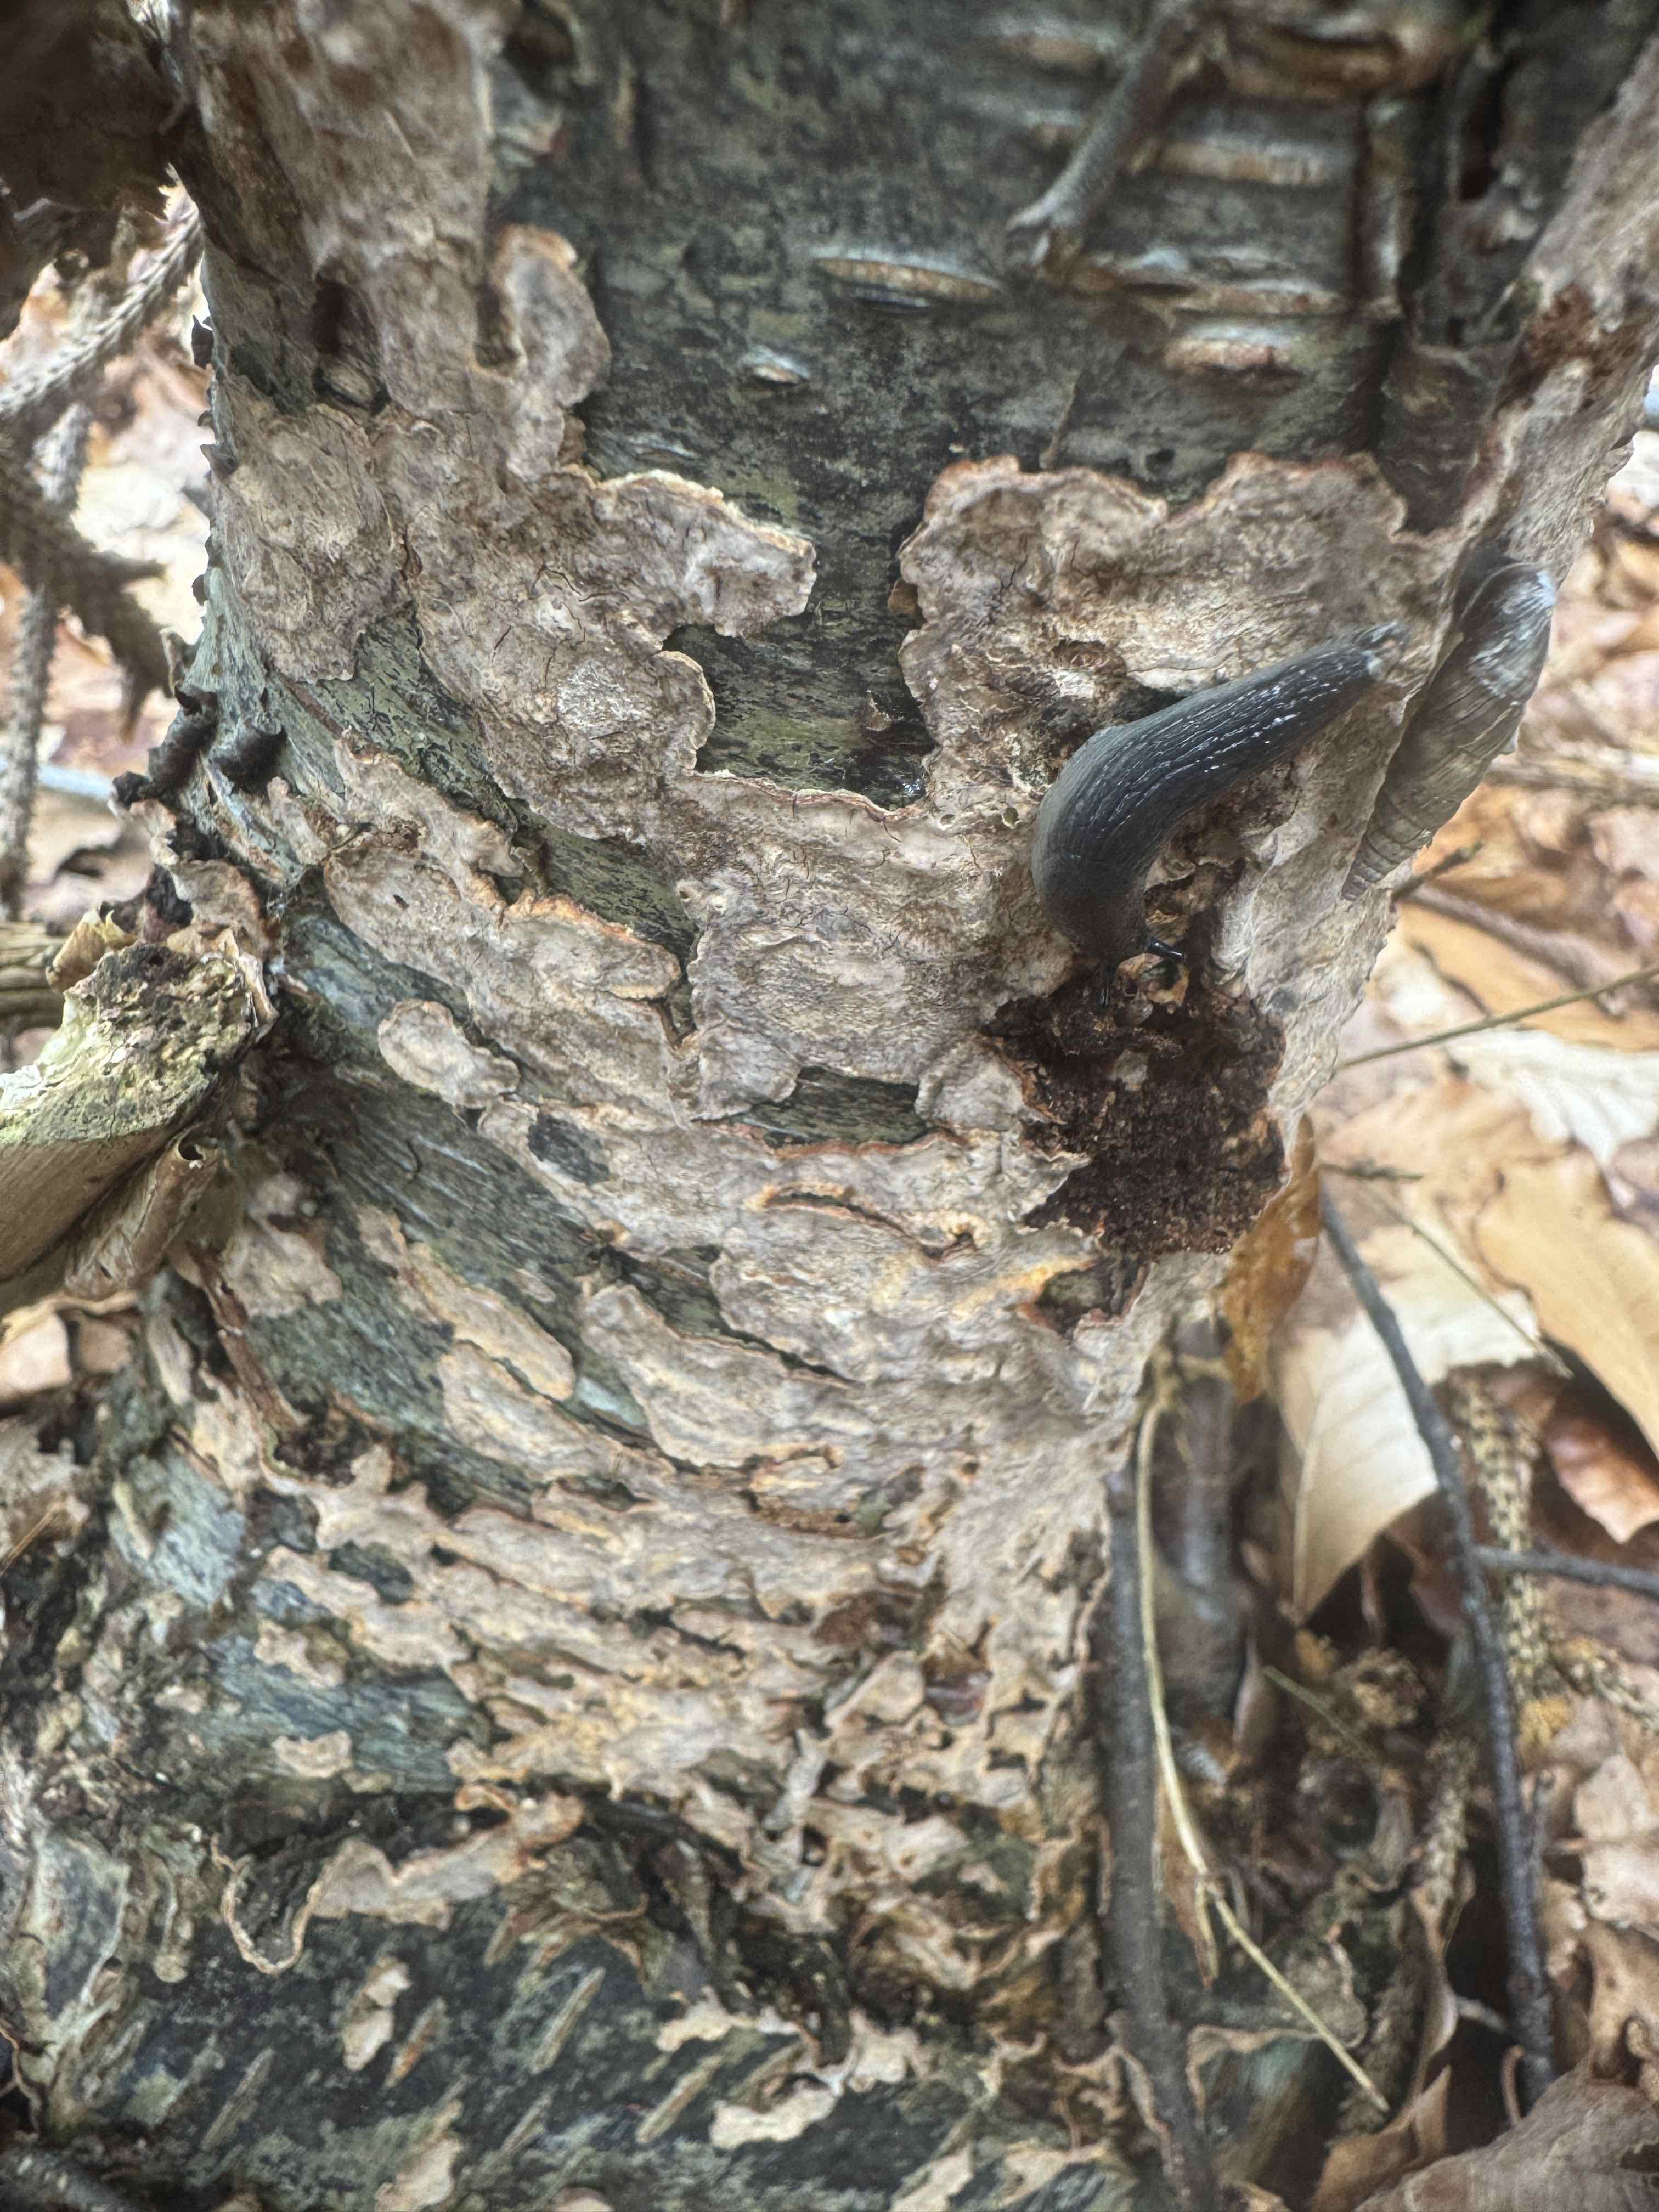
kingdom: Fungi
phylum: Basidiomycota
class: Agaricomycetes
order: Russulales
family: Stereaceae
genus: Stereum
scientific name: Stereum rugosum
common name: rynket lædersvamp
